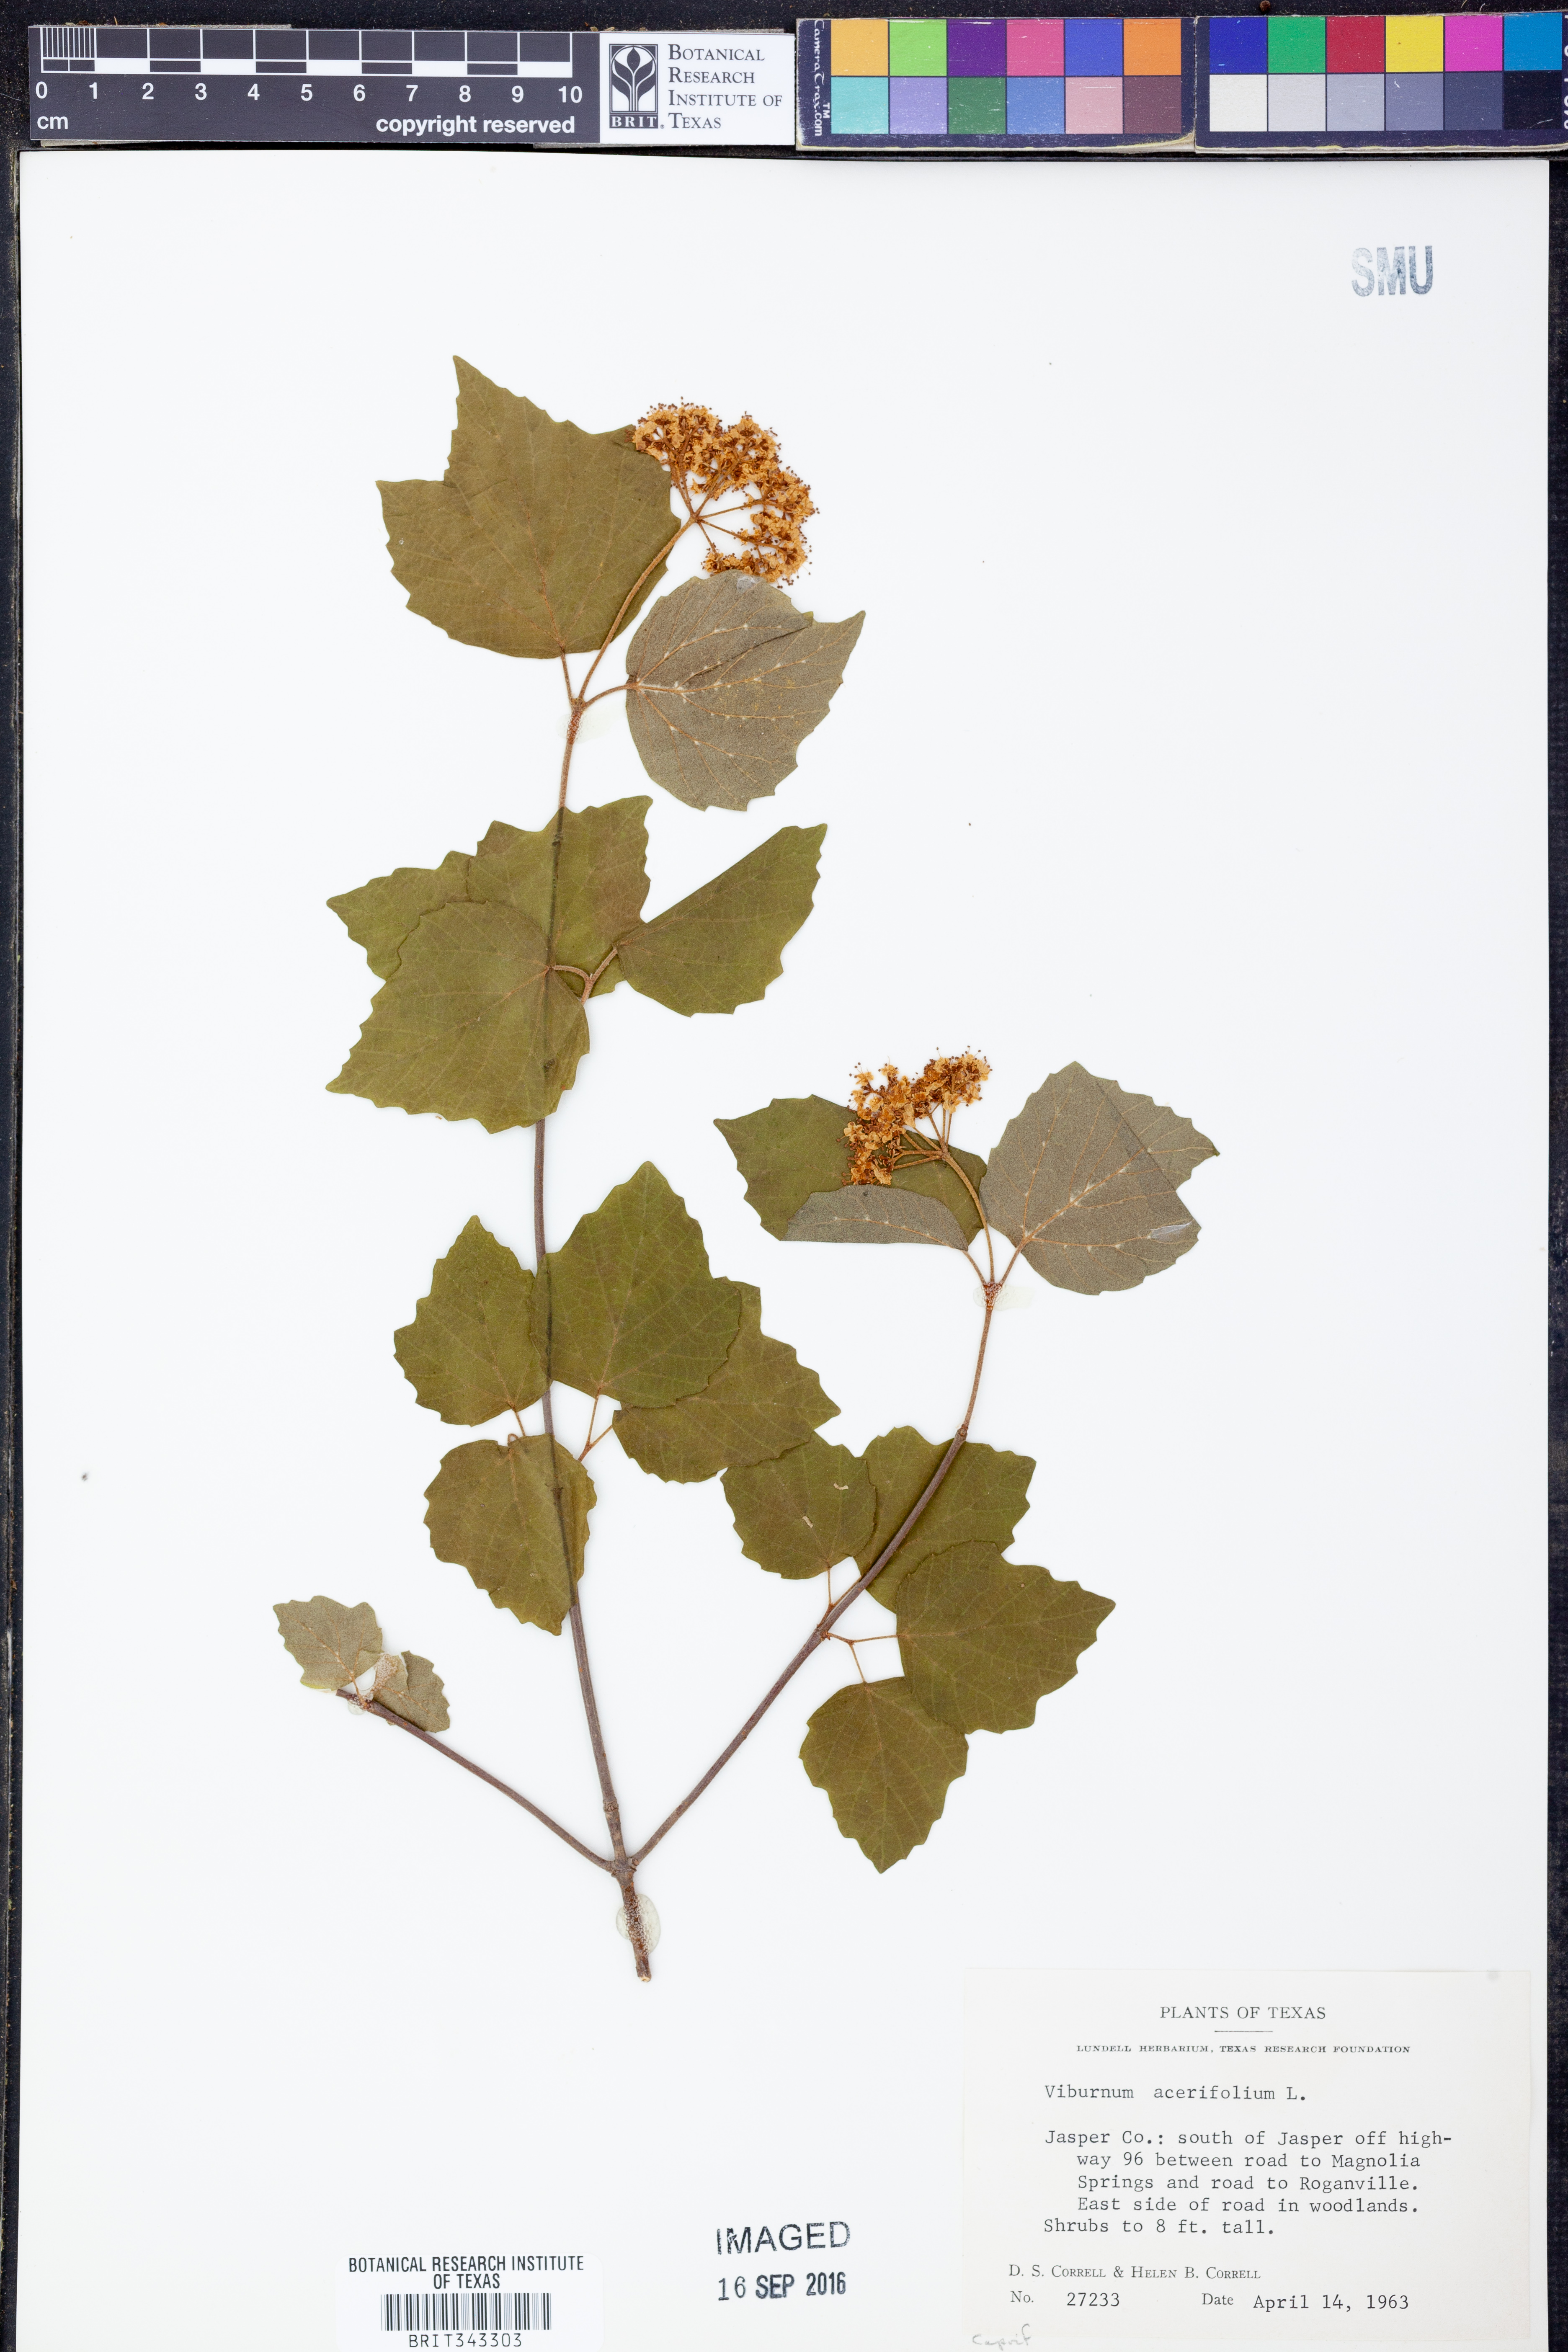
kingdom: Plantae
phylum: Tracheophyta
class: Magnoliopsida
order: Dipsacales
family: Viburnaceae
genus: Viburnum
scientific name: Viburnum acerifolium
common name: Dockmackie
